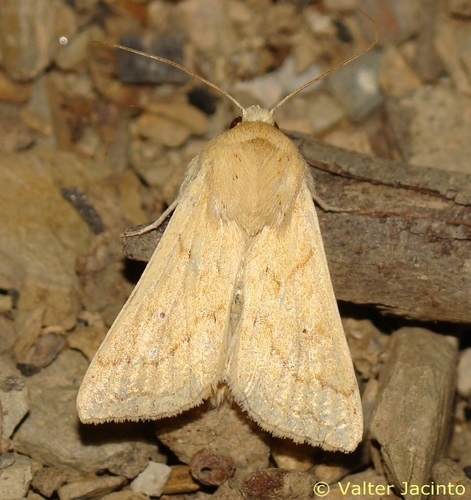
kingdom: Animalia
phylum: Arthropoda
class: Insecta
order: Lepidoptera
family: Noctuidae
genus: Mythimna
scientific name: Mythimna vitellina
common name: Delicate
